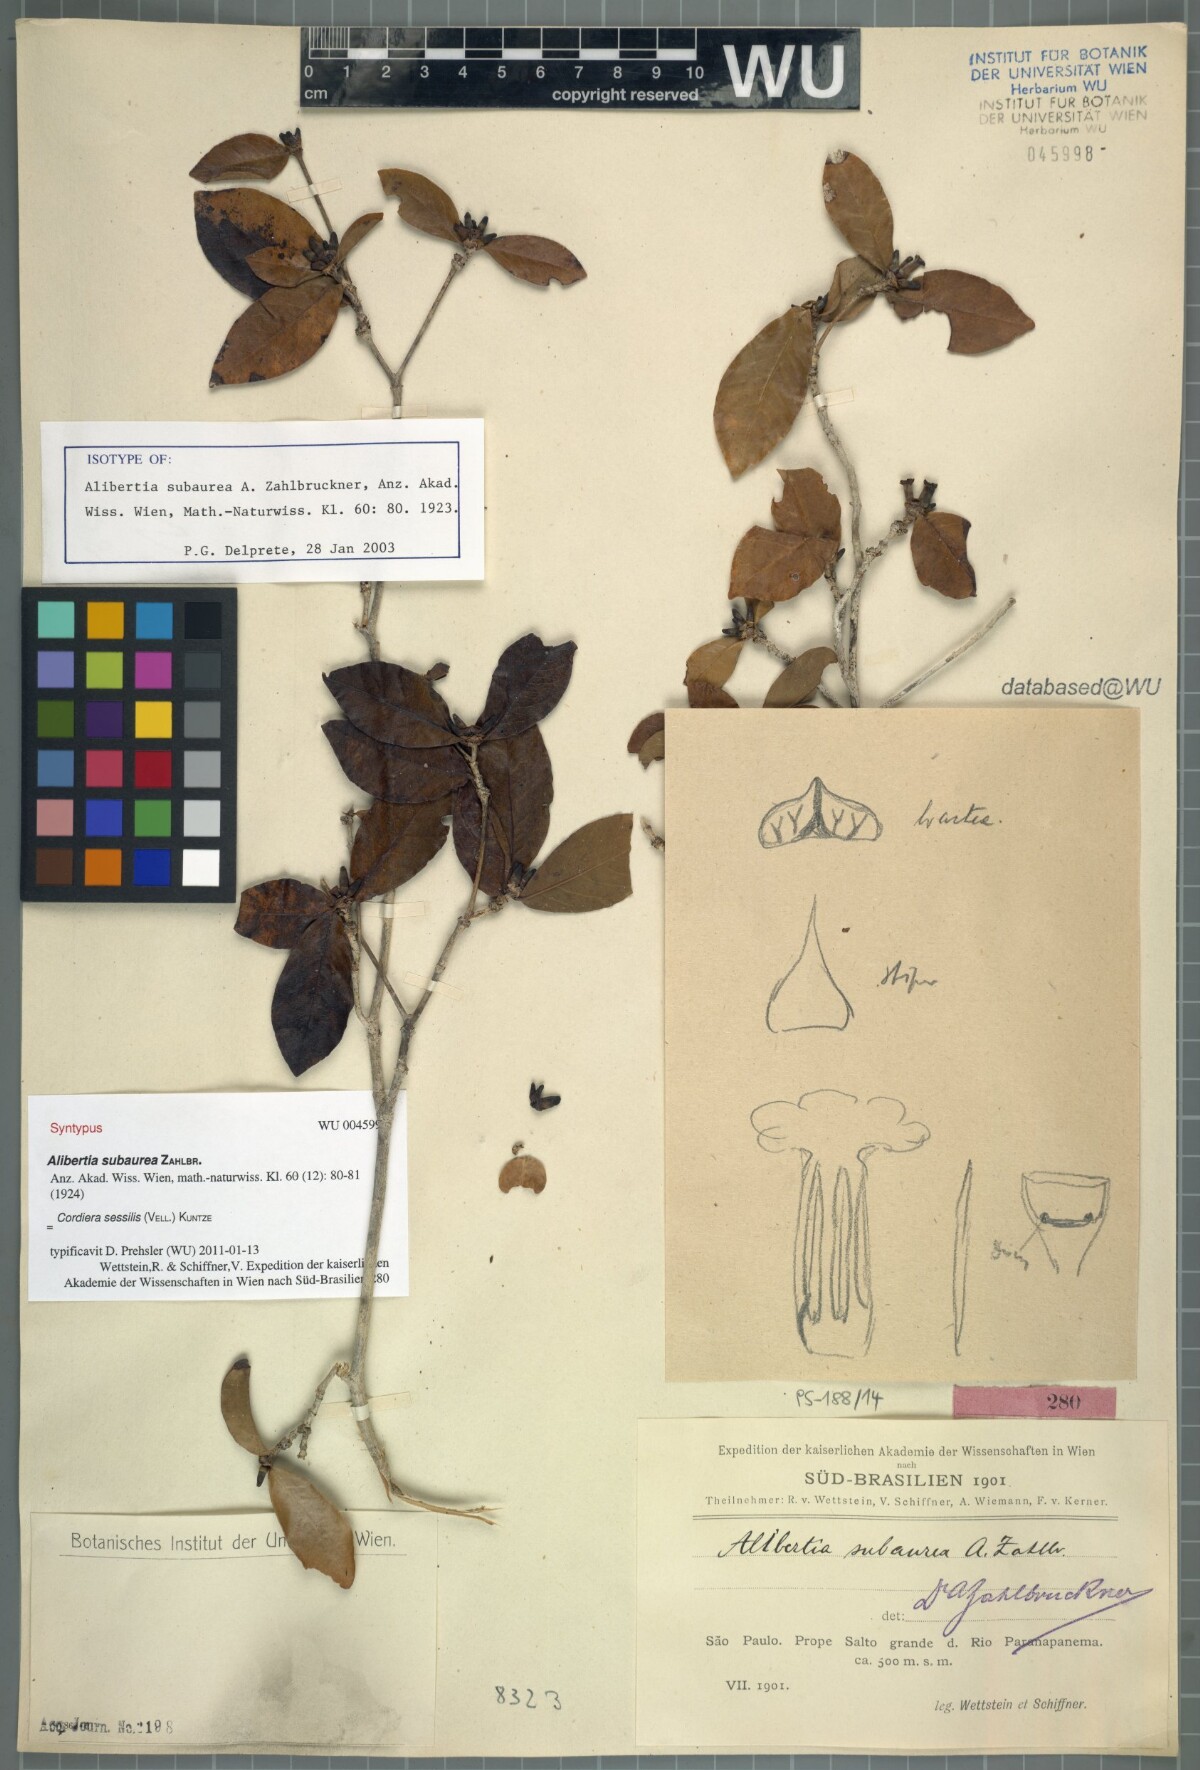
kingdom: Plantae
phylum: Tracheophyta
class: Magnoliopsida
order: Gentianales
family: Rubiaceae
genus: Cordiera
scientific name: Cordiera subaurea
